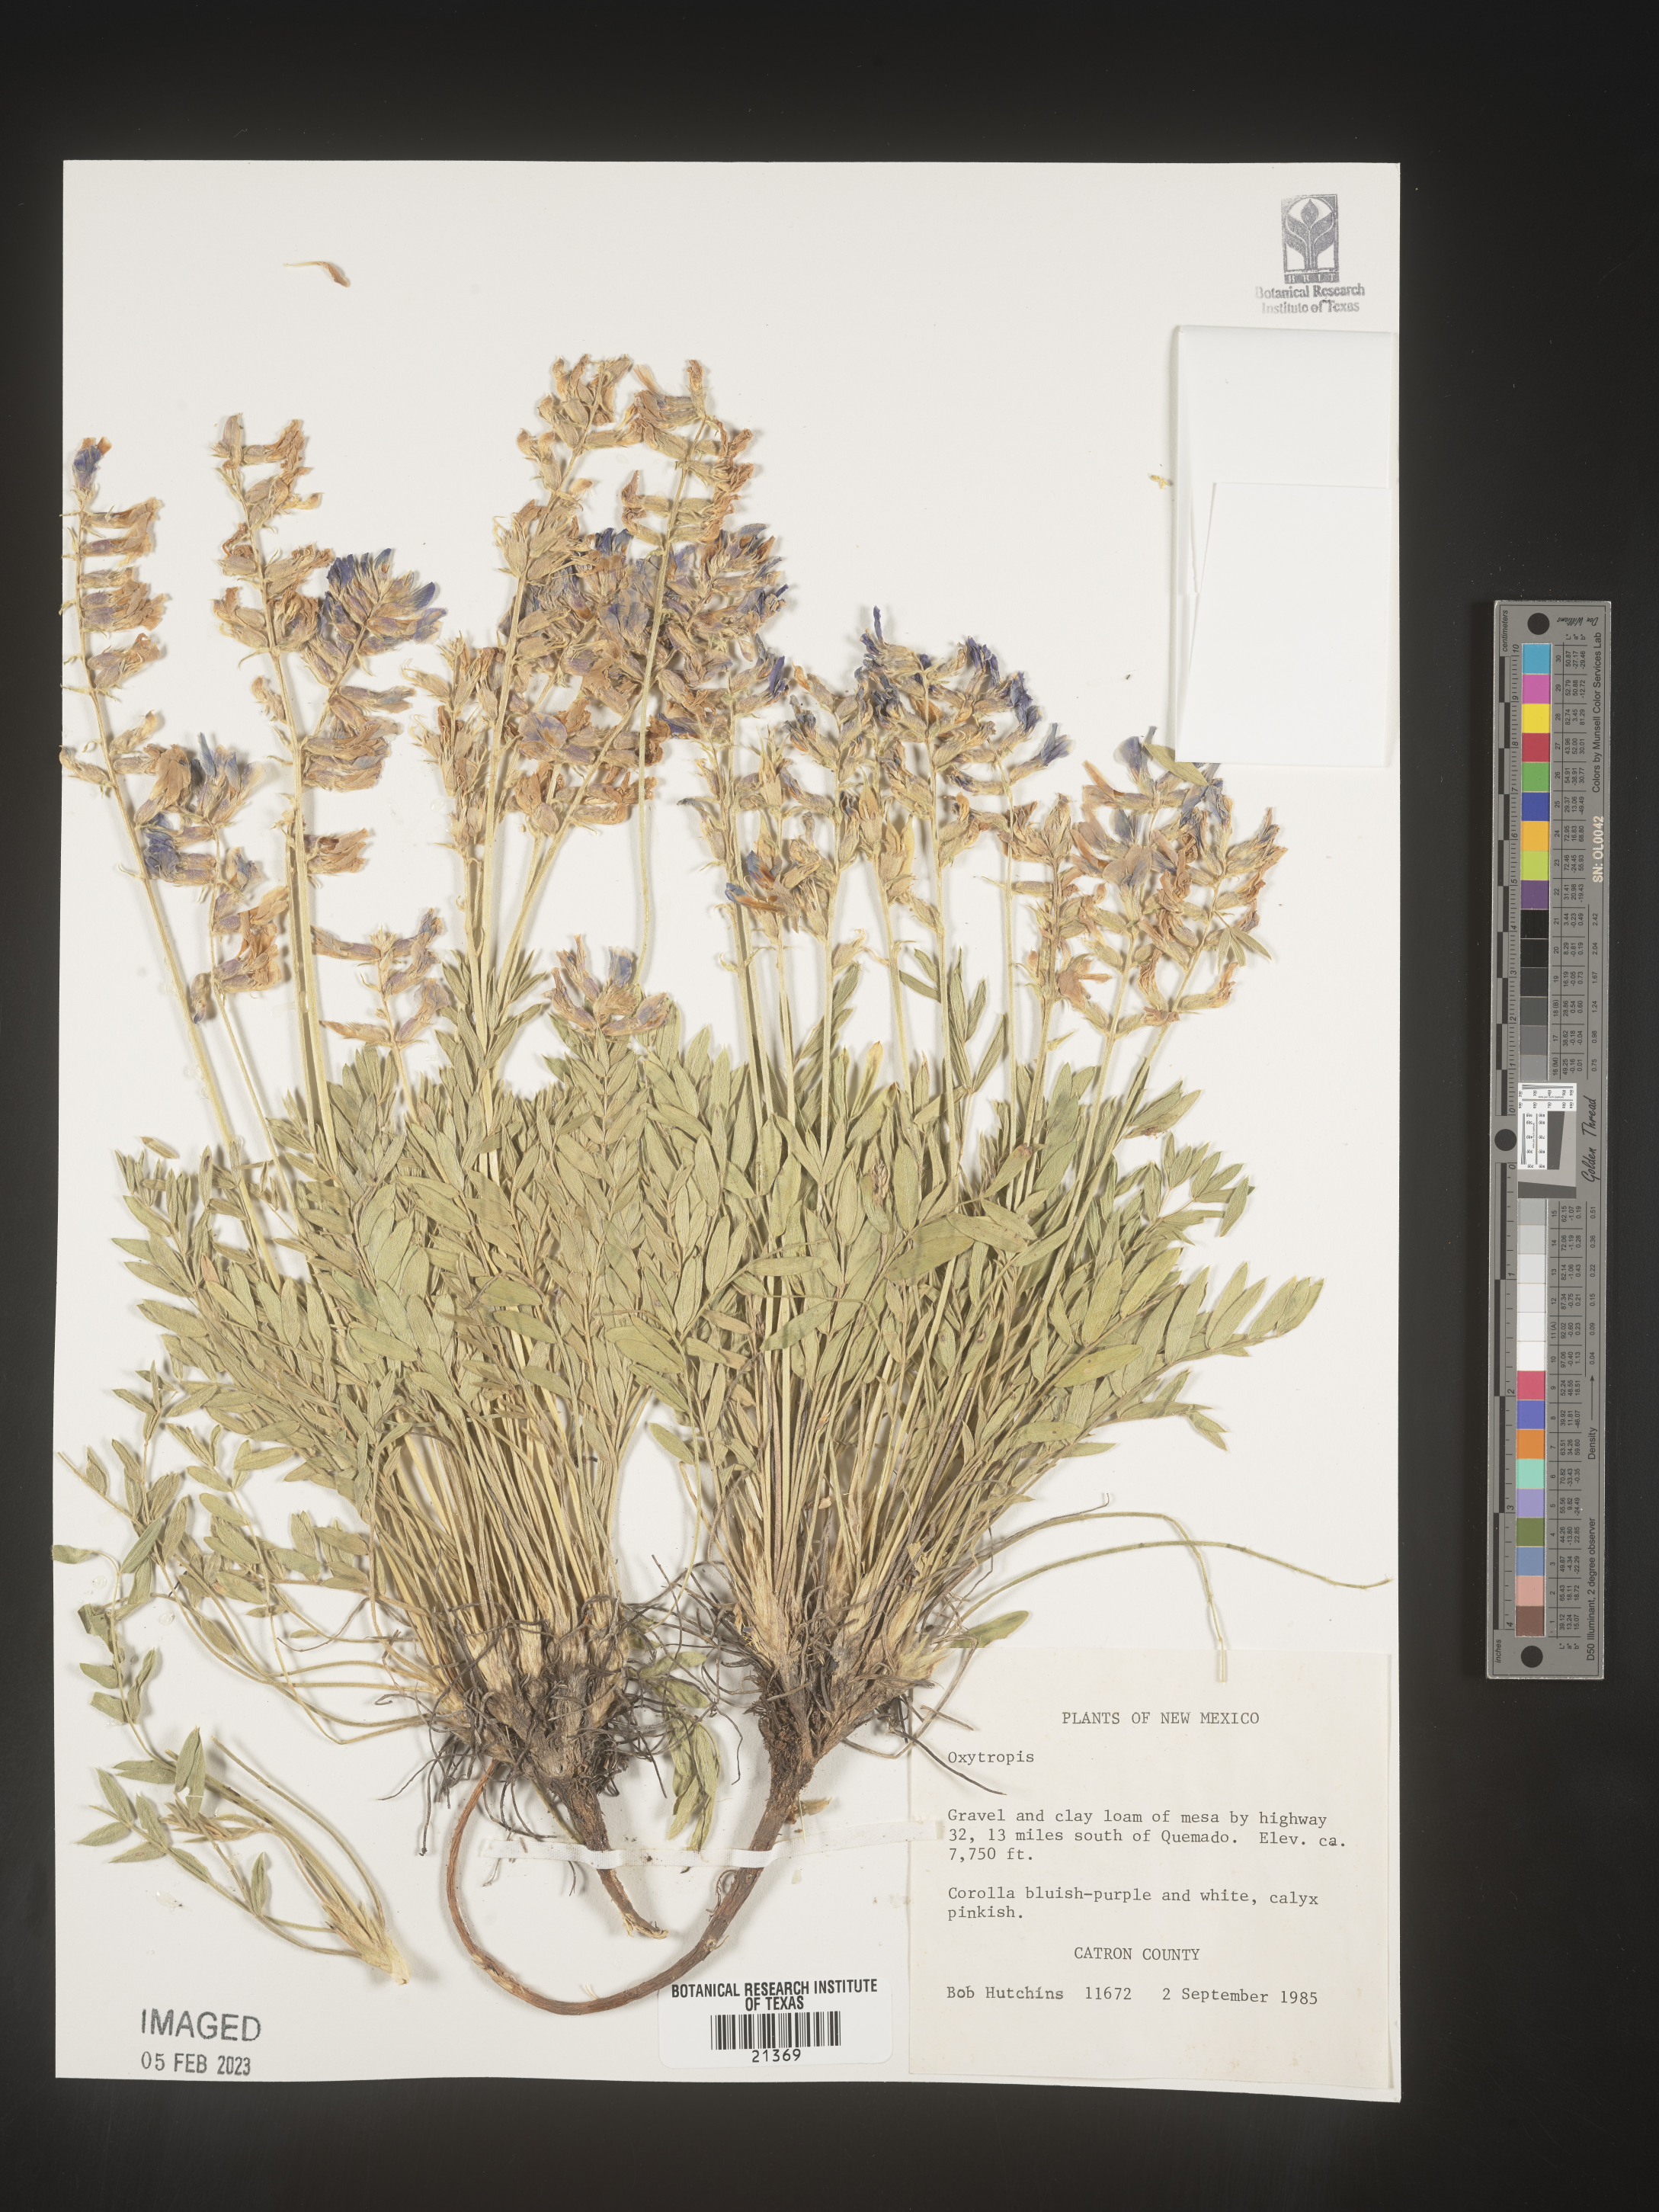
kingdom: Plantae
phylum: Tracheophyta
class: Magnoliopsida
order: Fabales
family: Fabaceae
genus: Oxytropis
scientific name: Oxytropis
